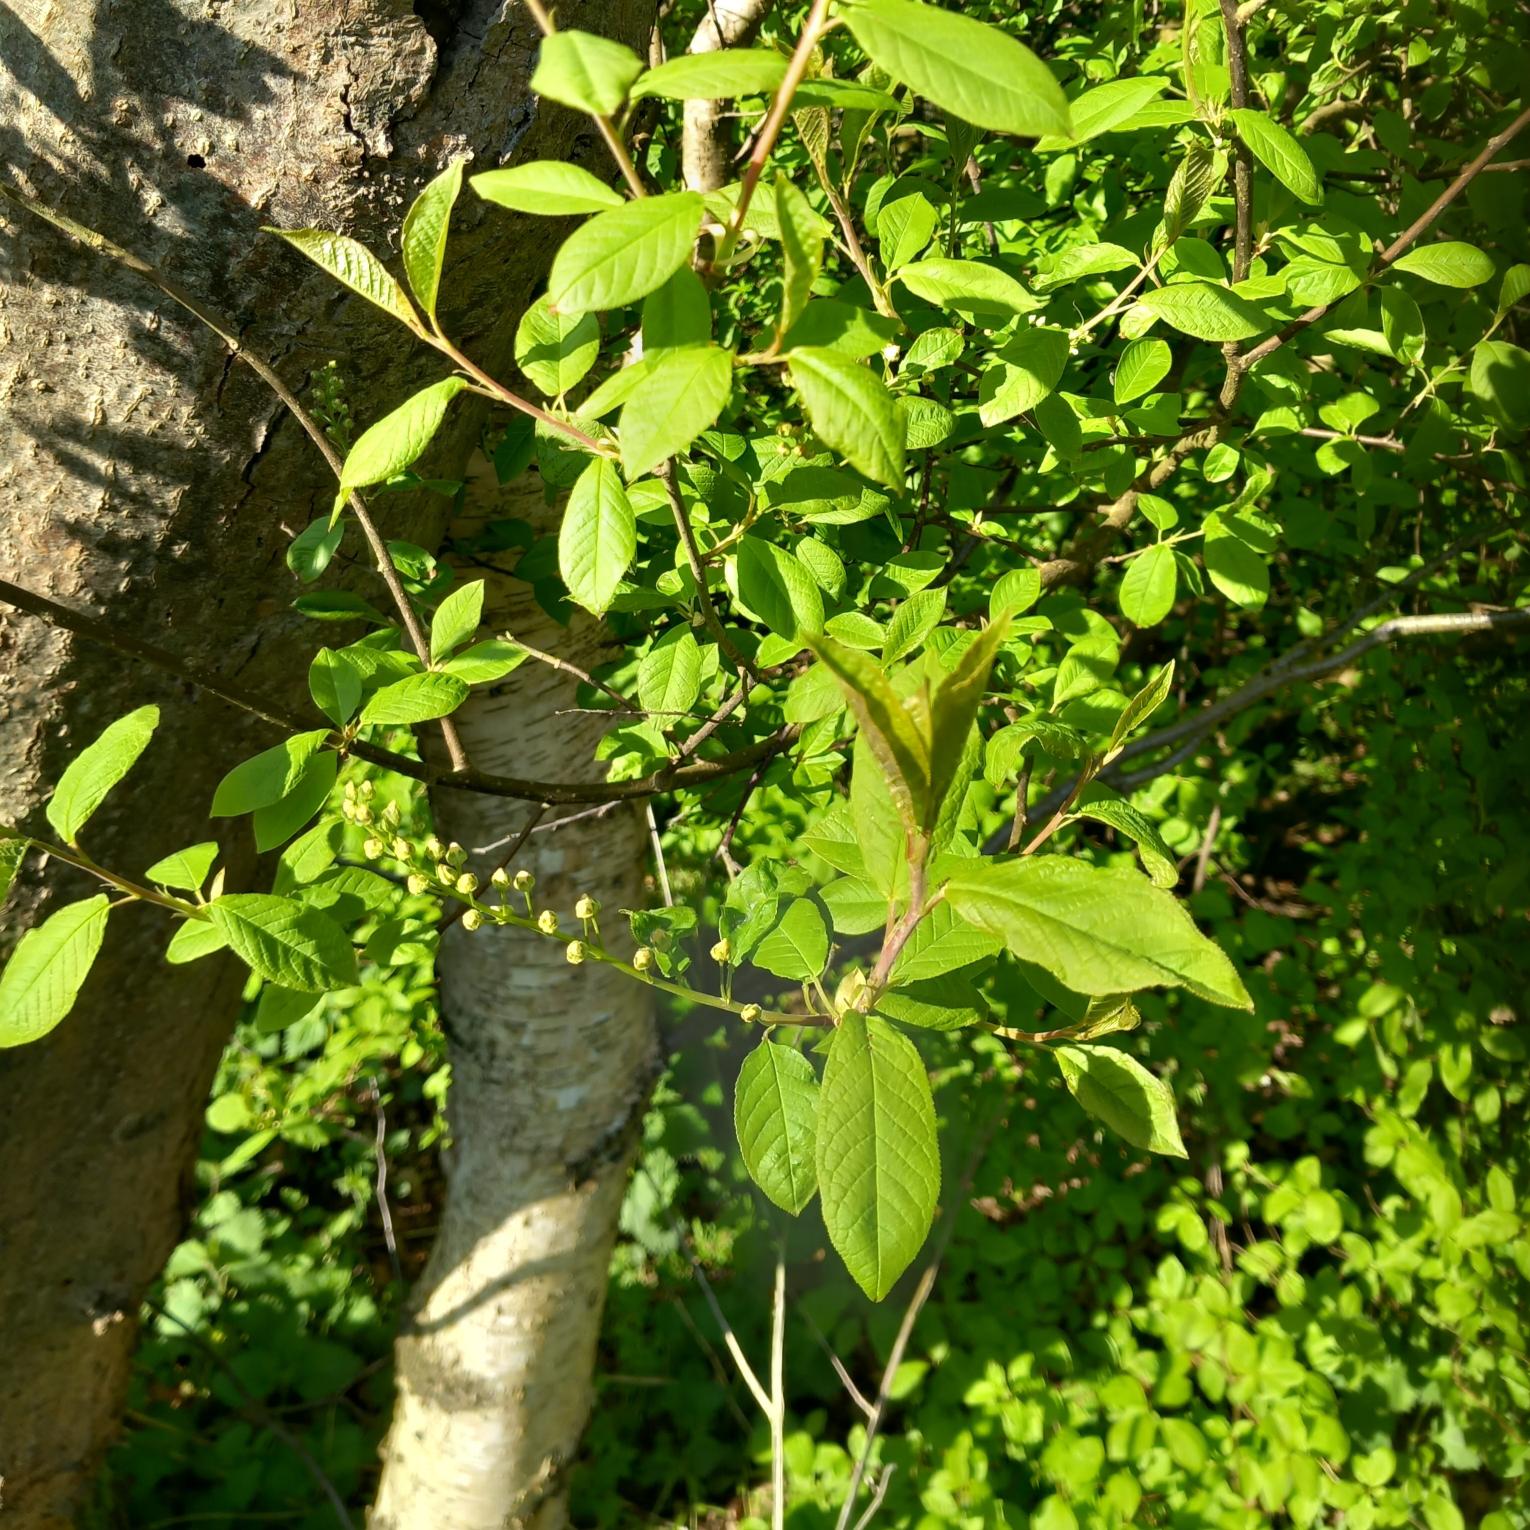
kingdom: Plantae
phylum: Tracheophyta
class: Magnoliopsida
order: Rosales
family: Rosaceae
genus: Prunus
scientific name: Prunus padus
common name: Almindelig hæg
